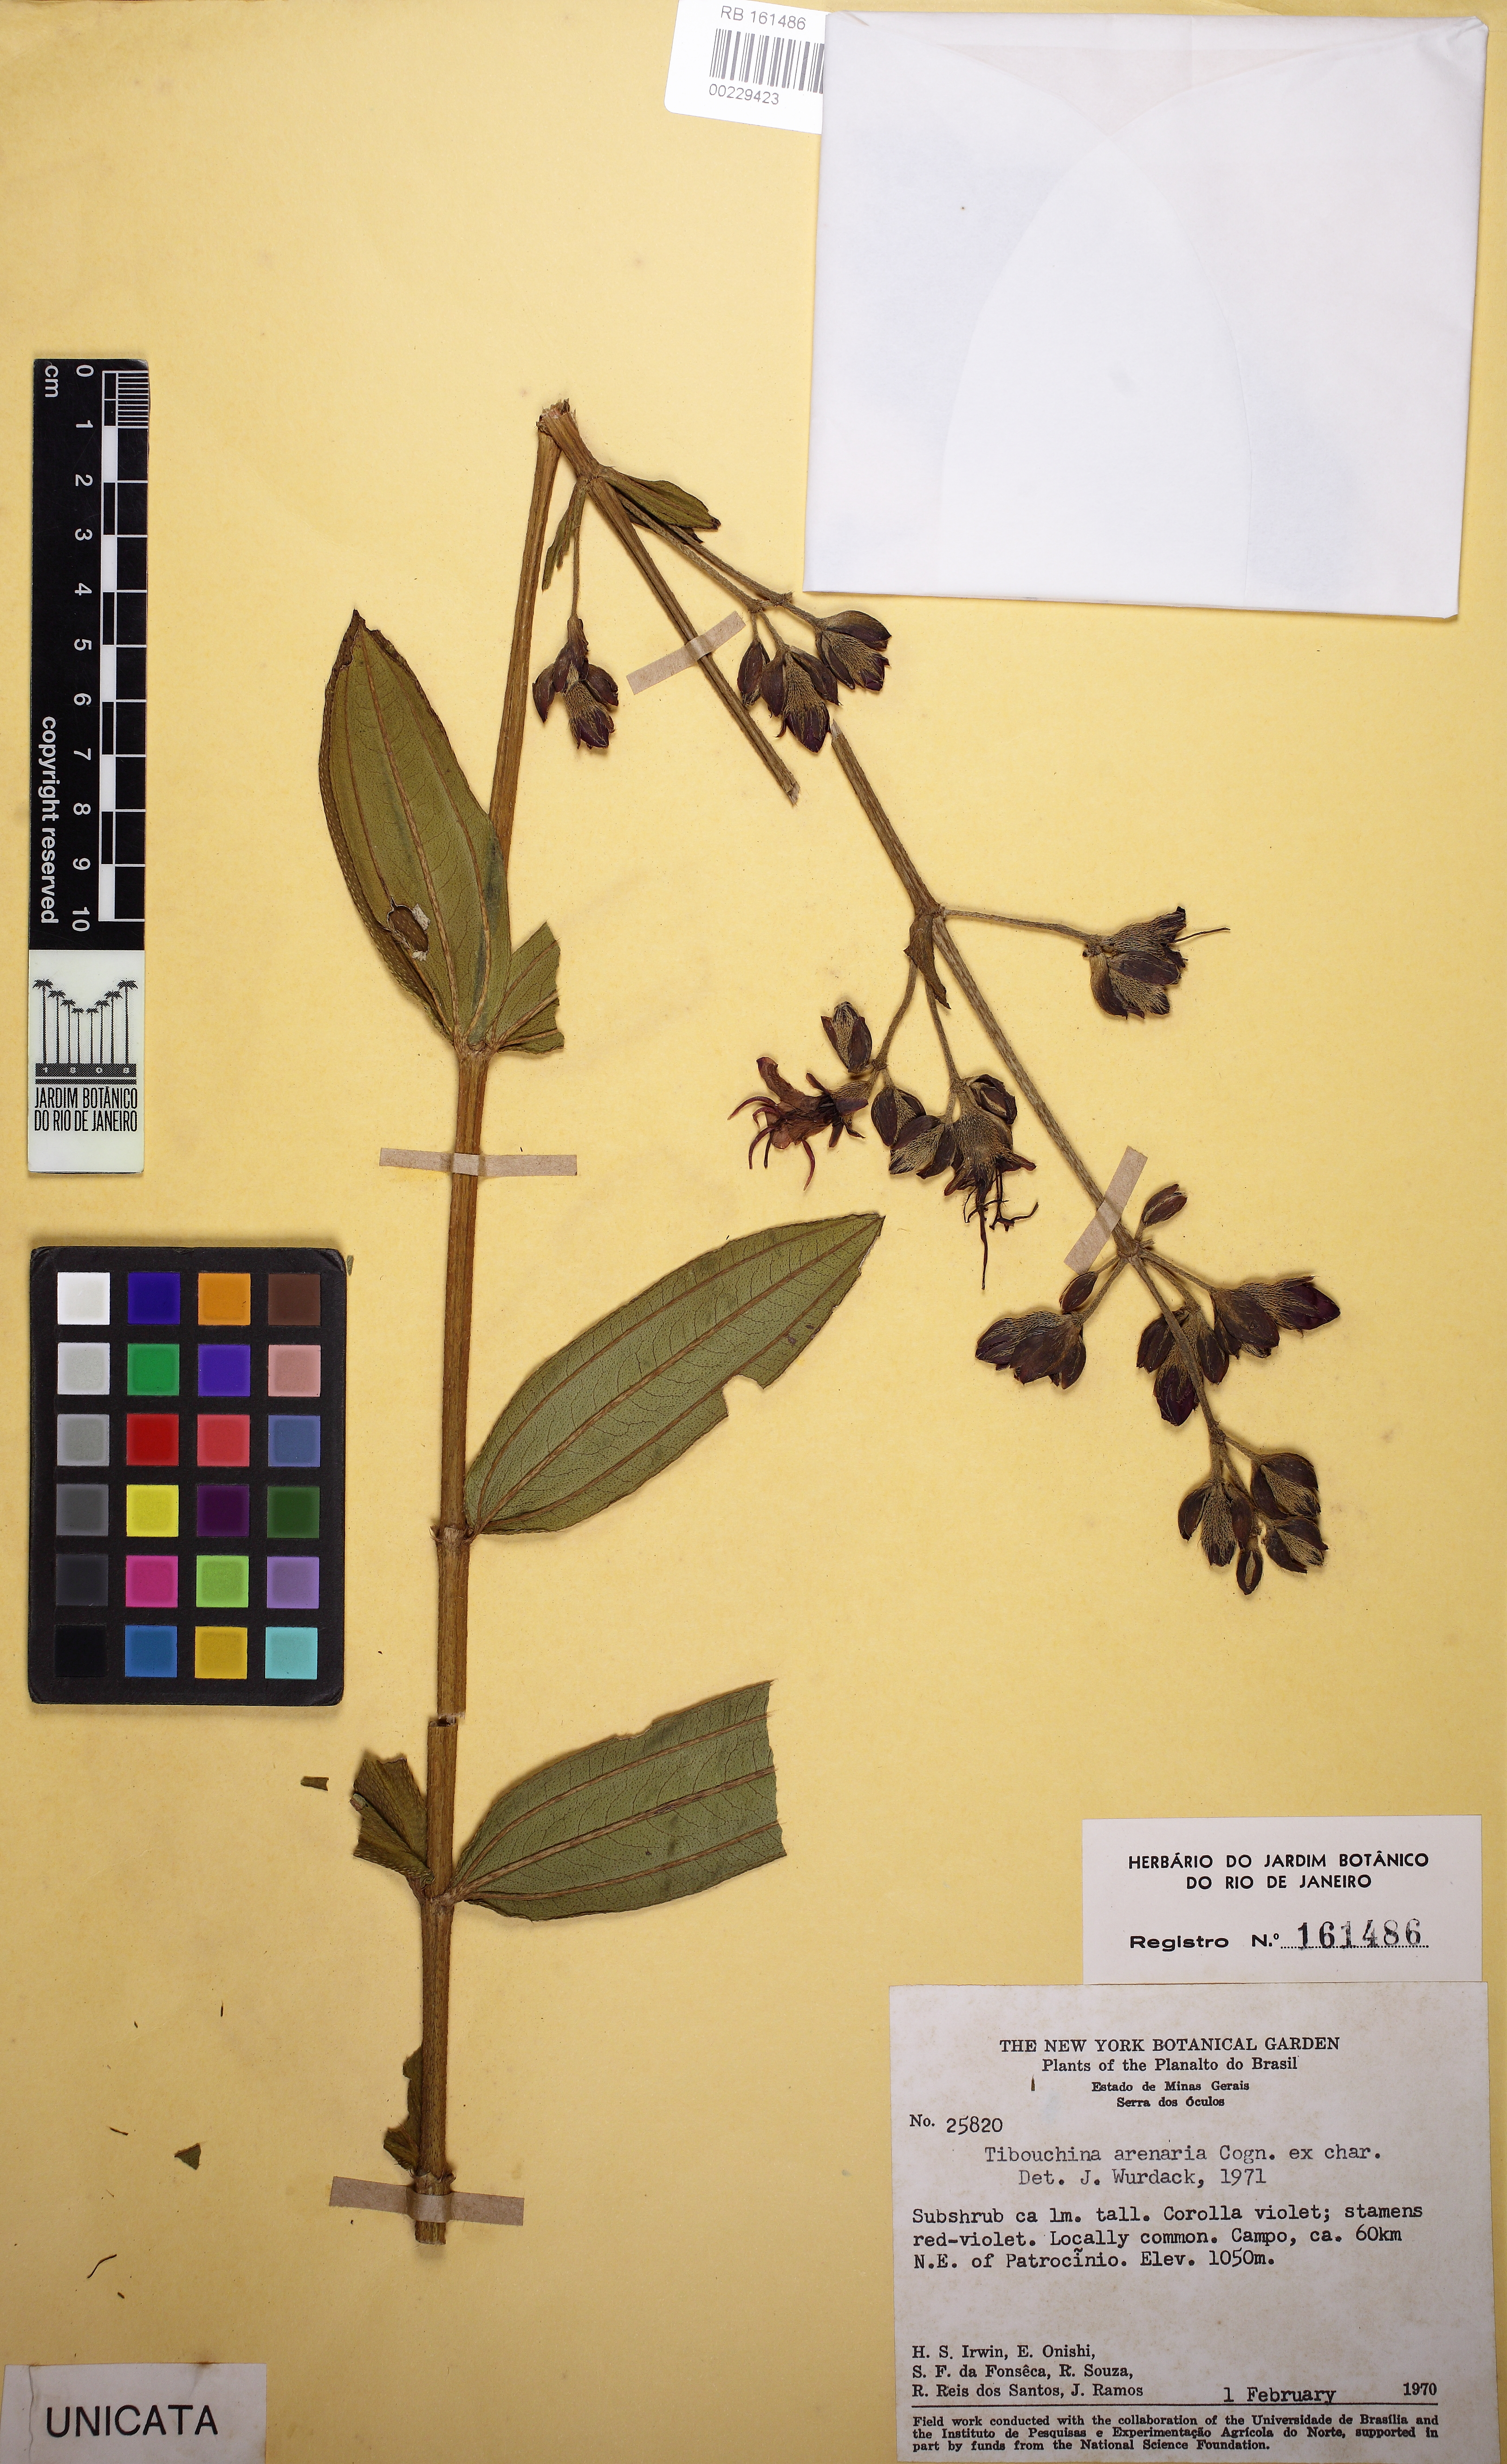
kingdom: Plantae
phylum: Tracheophyta
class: Magnoliopsida
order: Myrtales
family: Melastomataceae
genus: Pleroma
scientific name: Pleroma arenarium
